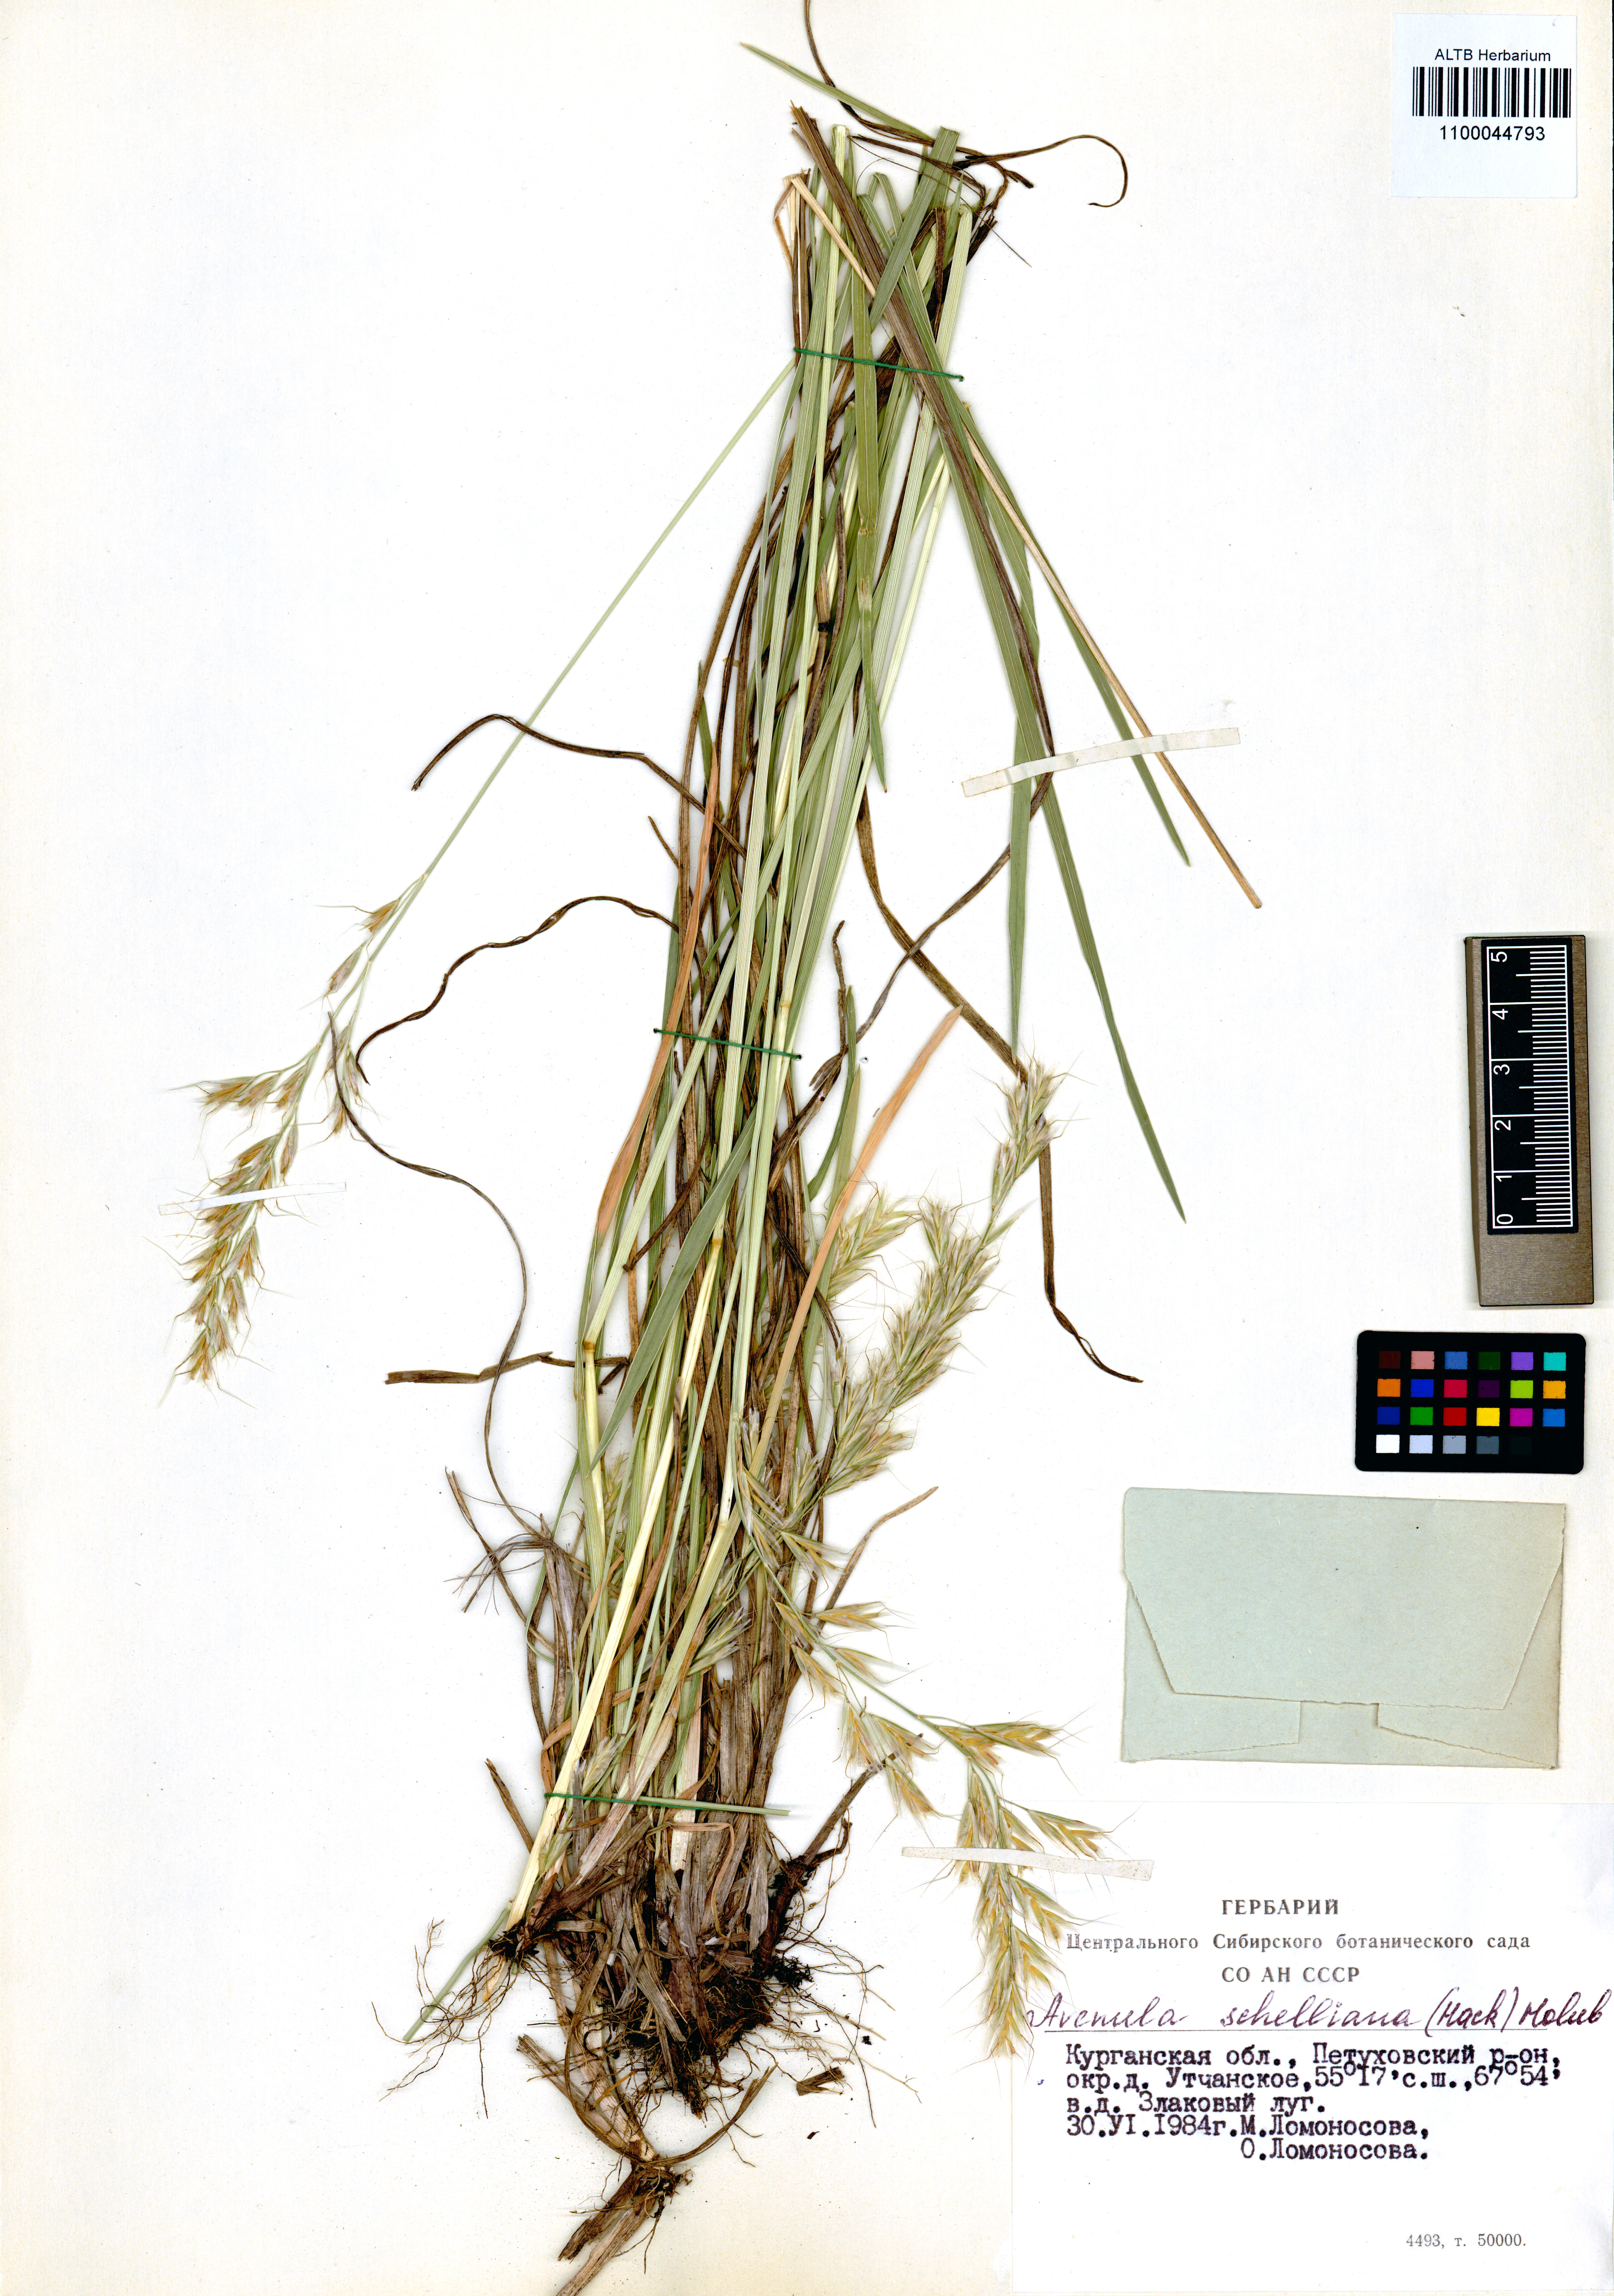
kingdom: Plantae
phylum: Tracheophyta
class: Liliopsida
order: Poales
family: Poaceae
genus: Helictochloa
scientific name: Helictochloa hookeri
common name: Hooker's alpine oatgrass
